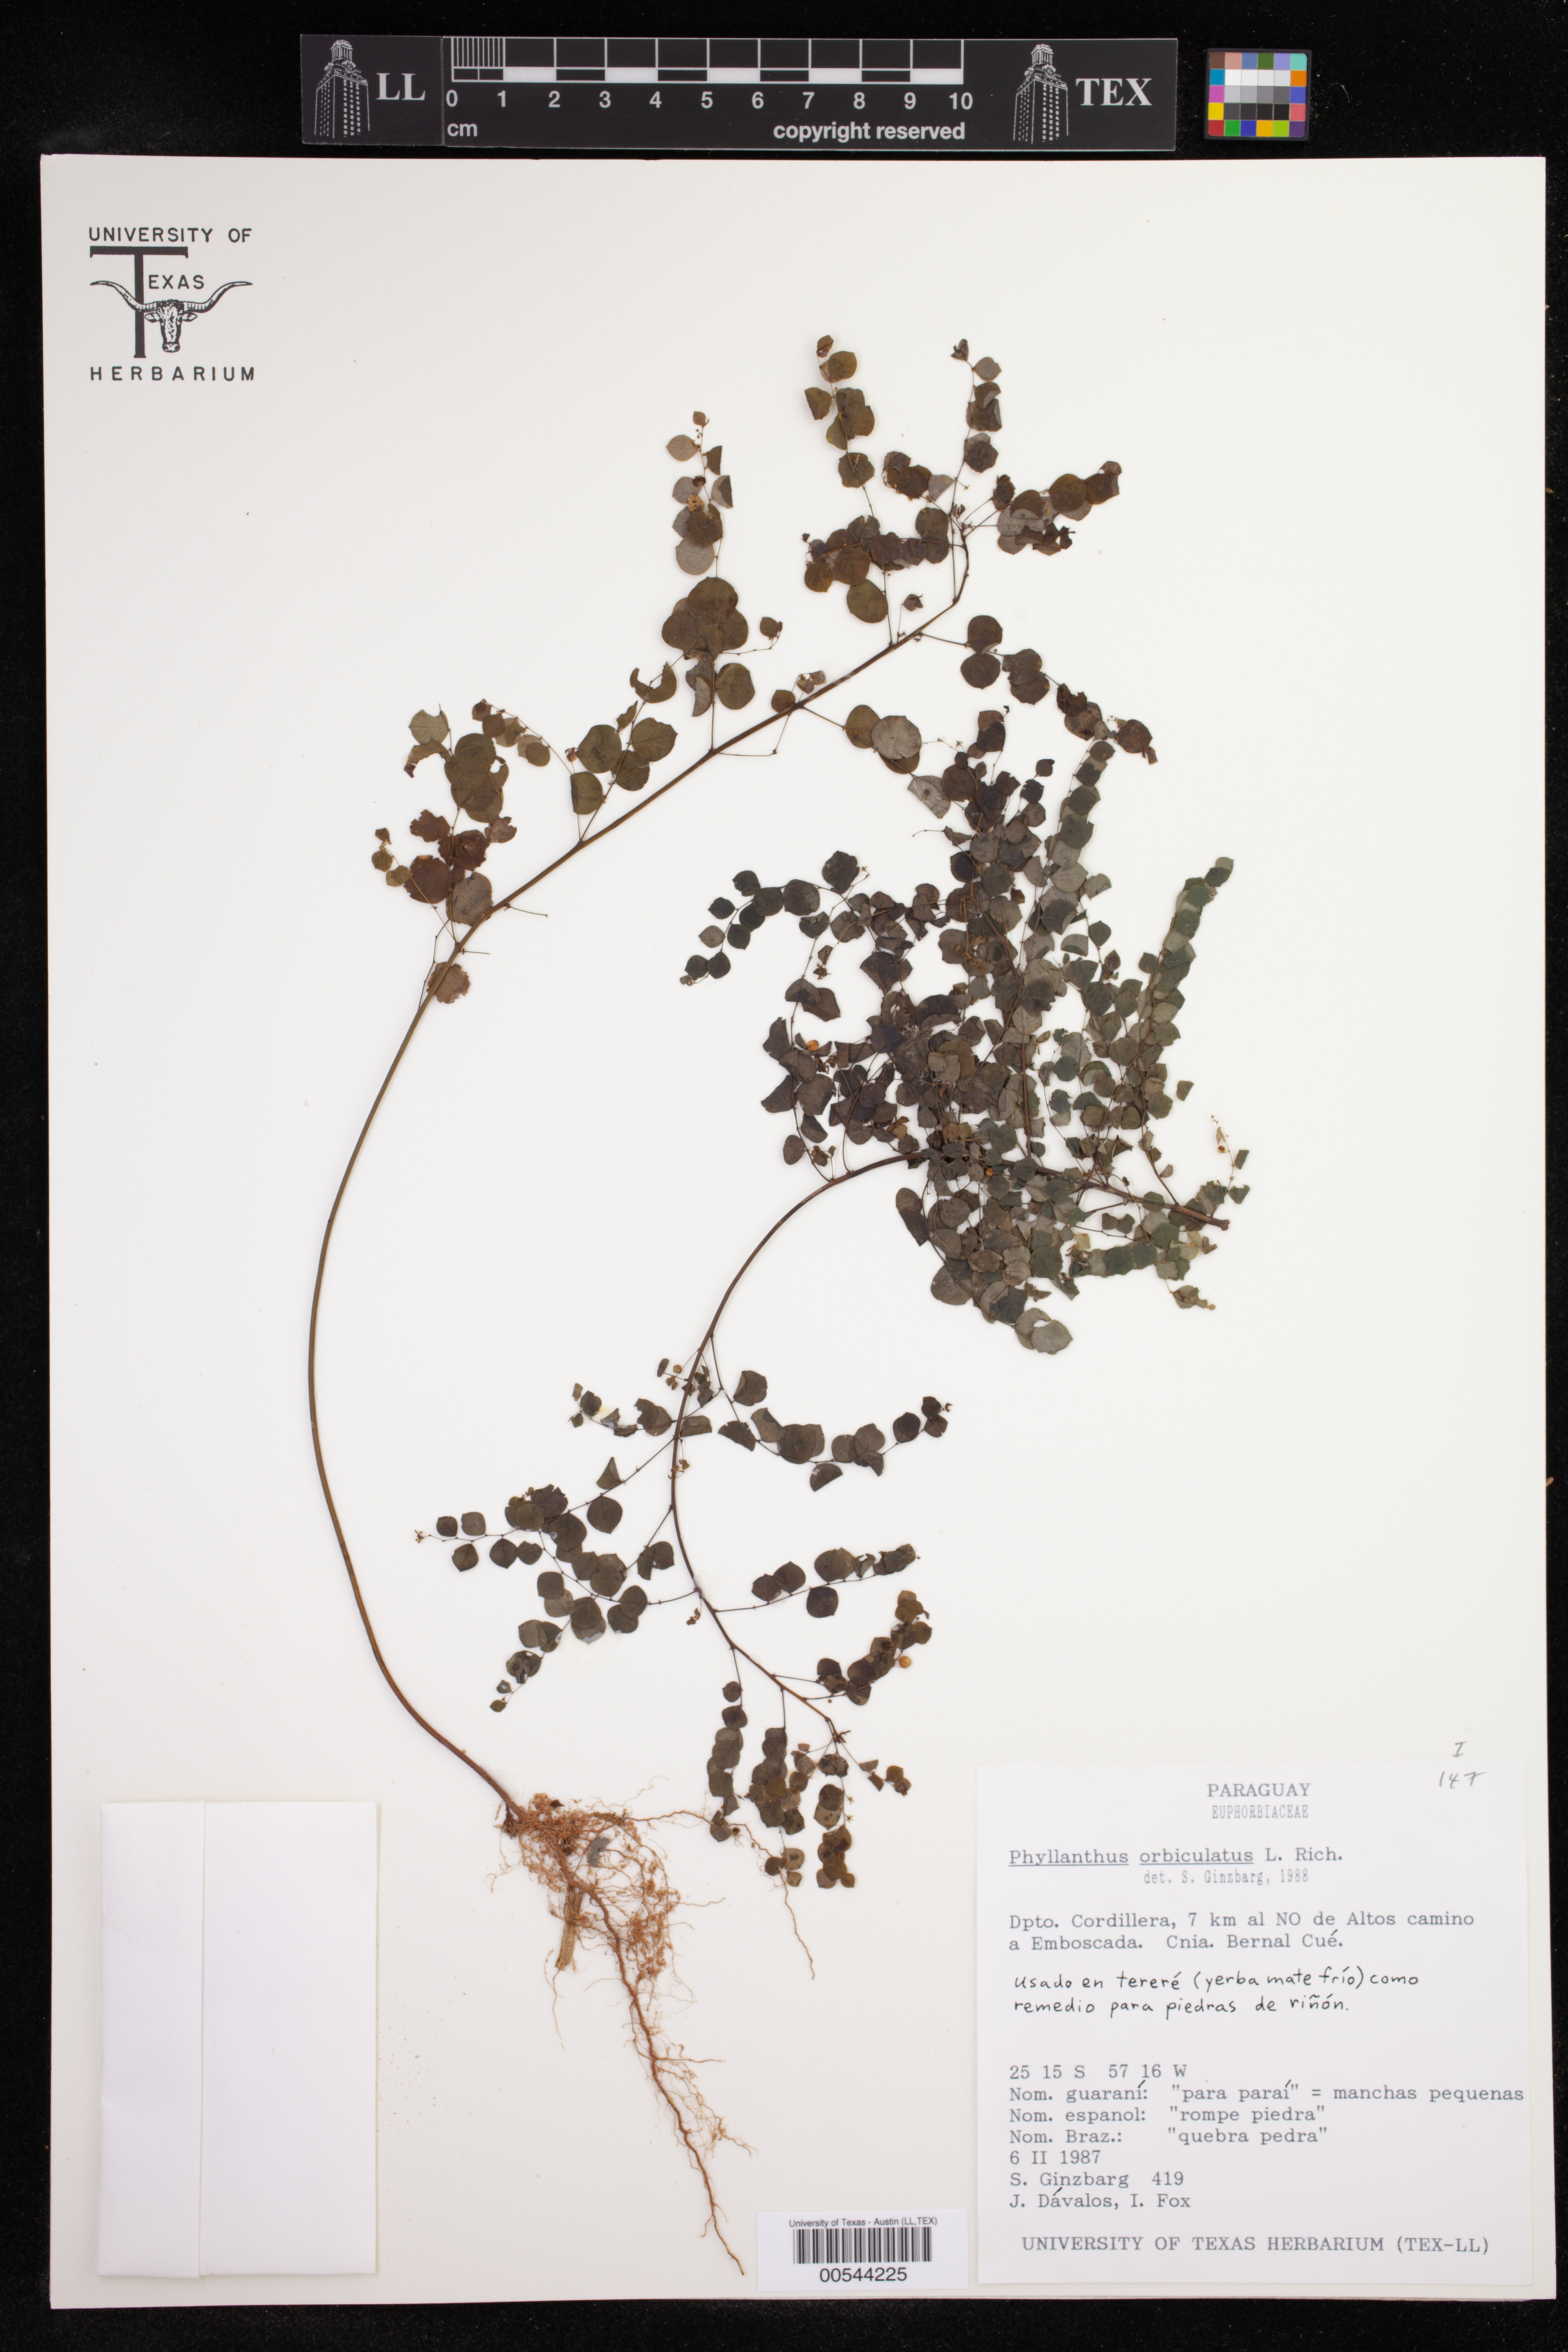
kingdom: Plantae
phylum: Tracheophyta
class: Magnoliopsida
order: Malpighiales
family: Phyllanthaceae
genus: Phyllanthus
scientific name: Phyllanthus orbiculatus
